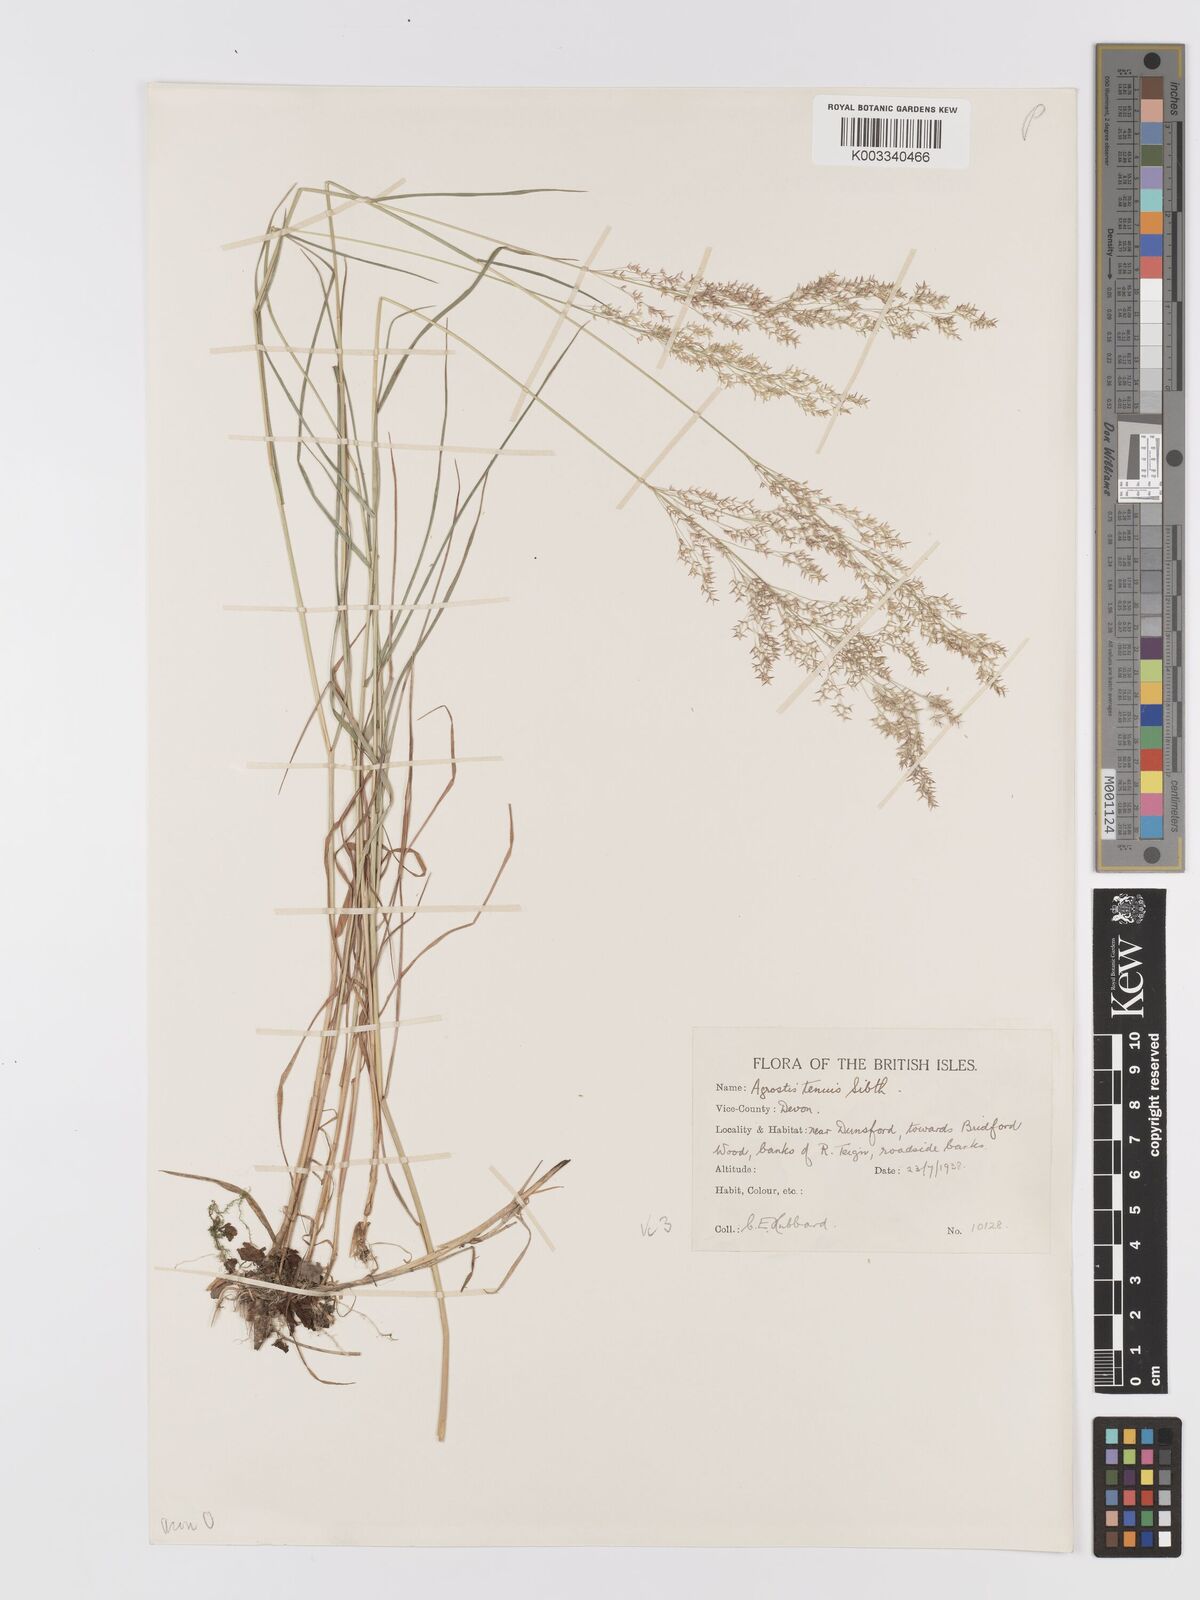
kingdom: Plantae
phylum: Tracheophyta
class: Liliopsida
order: Poales
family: Poaceae
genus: Agrostis
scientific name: Agrostis capillaris
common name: Colonial bentgrass
